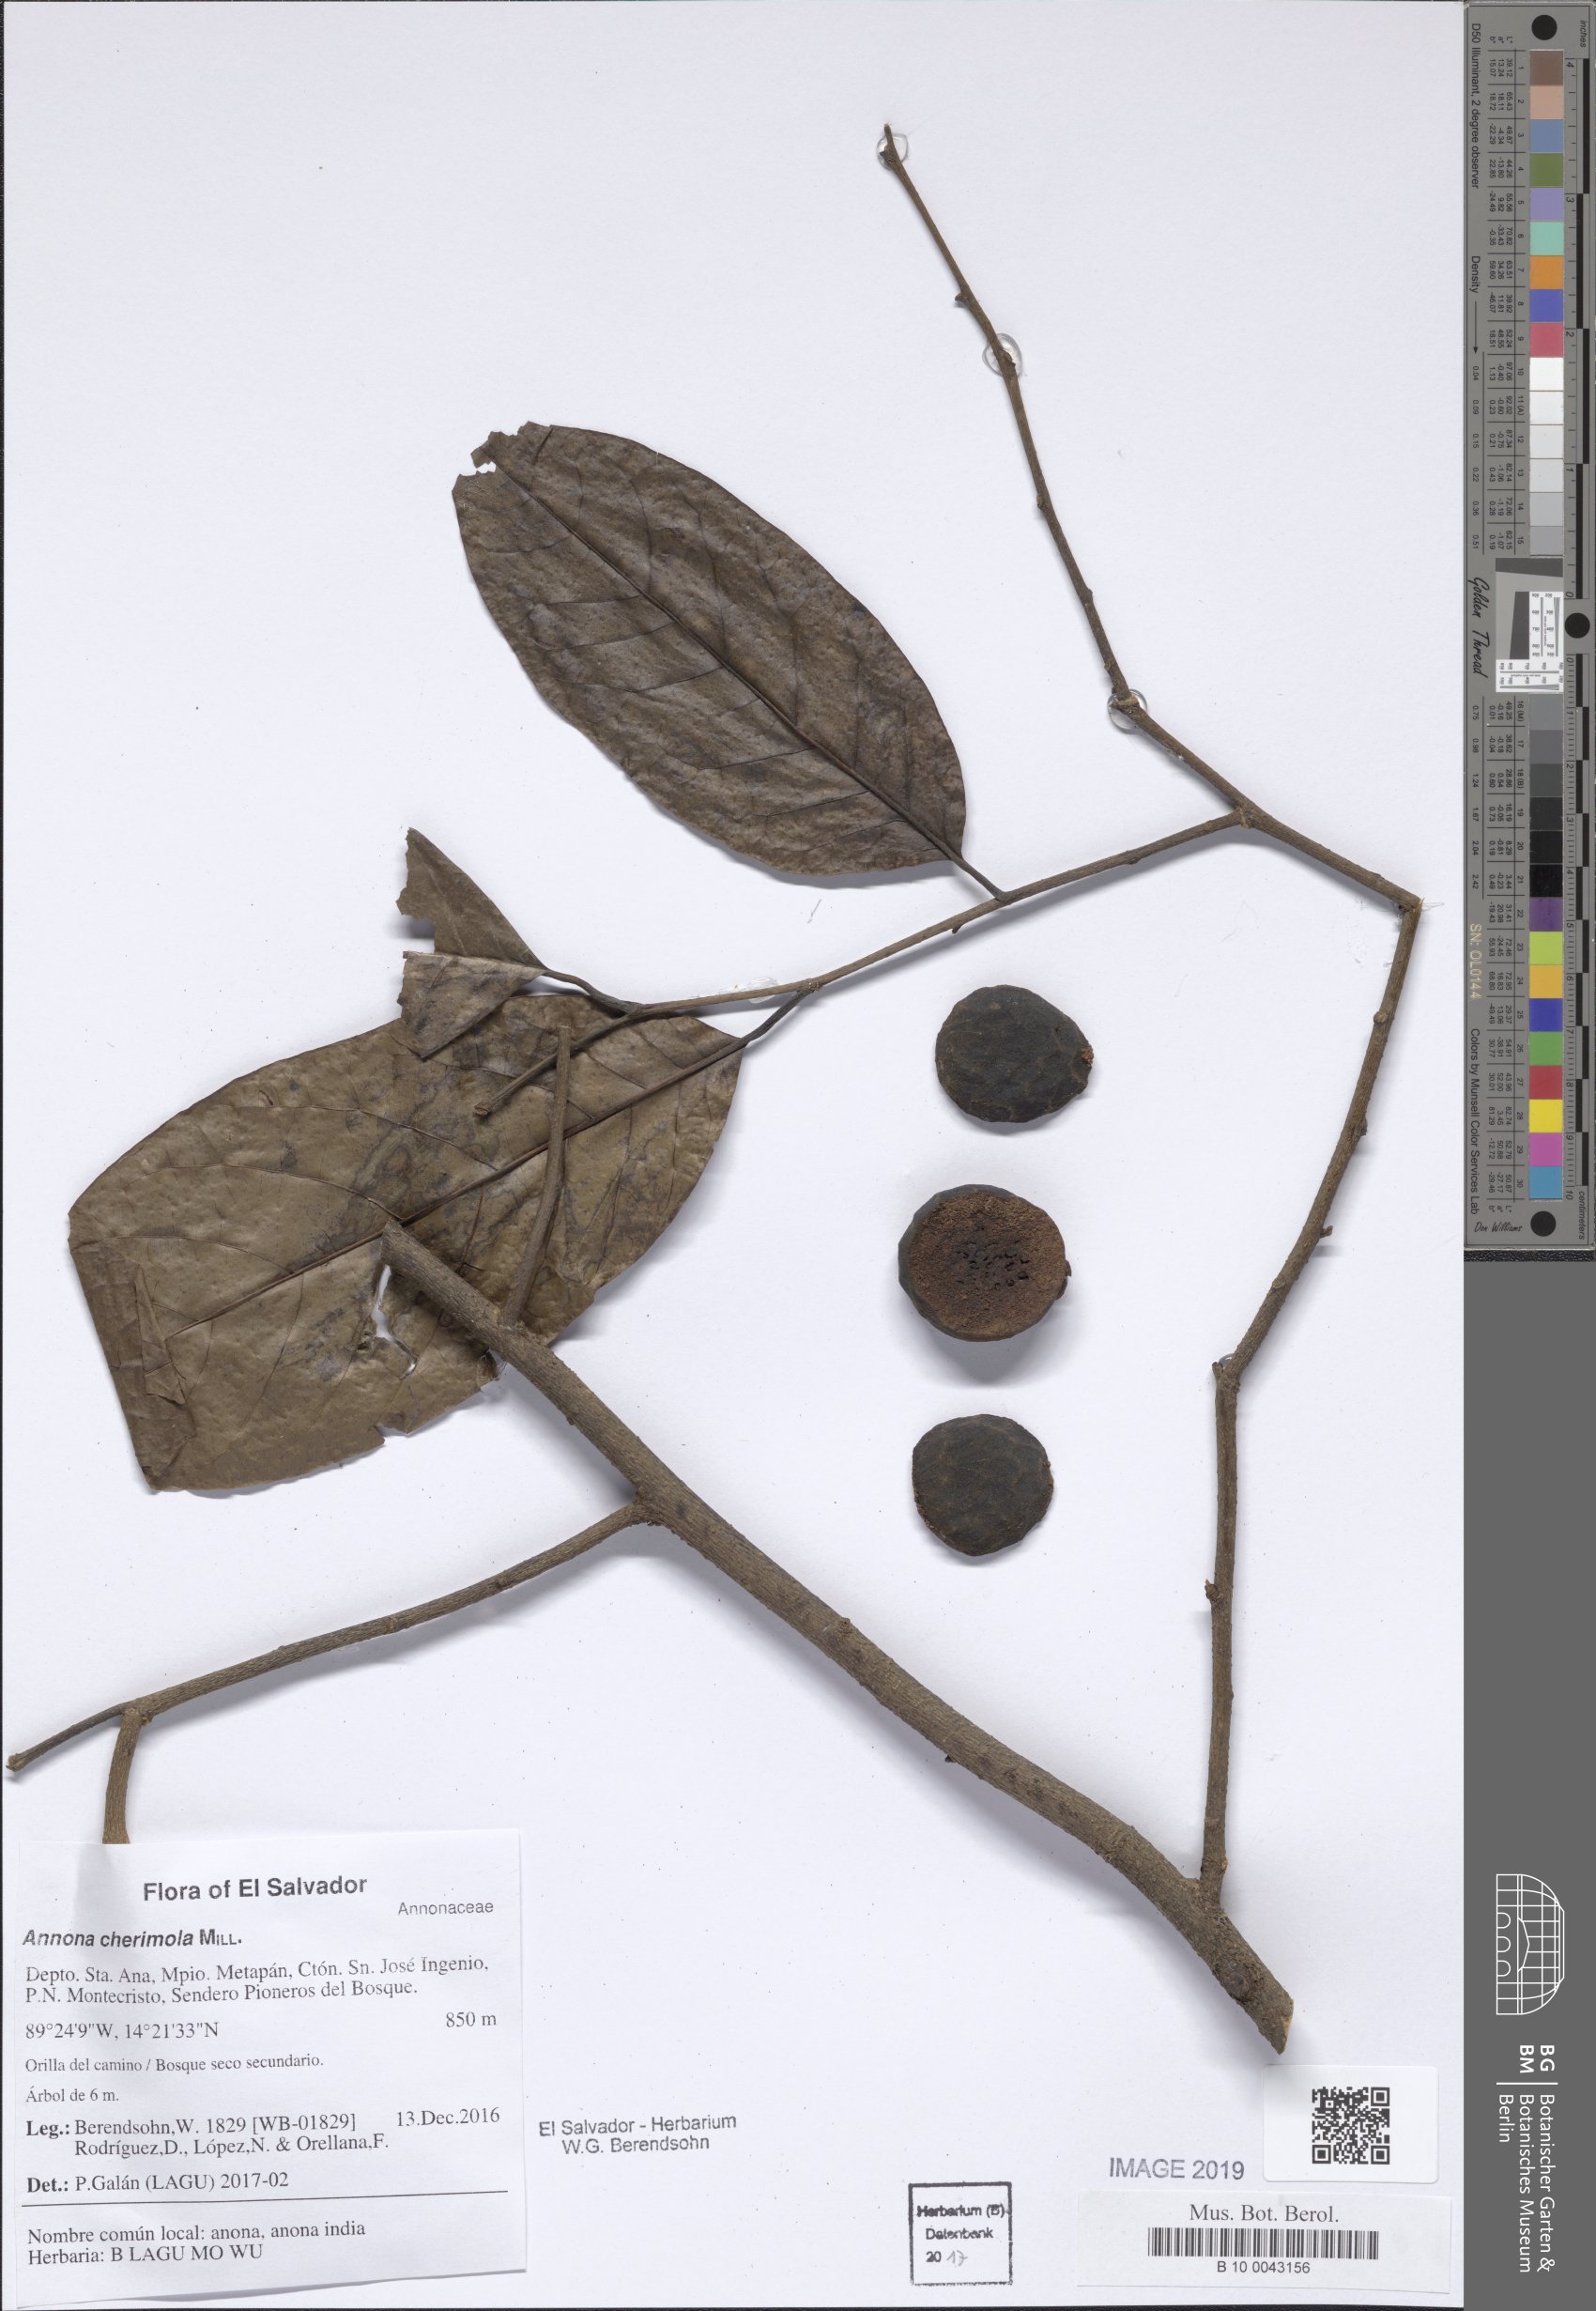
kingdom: Plantae
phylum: Tracheophyta
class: Magnoliopsida
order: Magnoliales
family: Annonaceae
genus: Annona
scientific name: Annona cherimola
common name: Cherimoya
